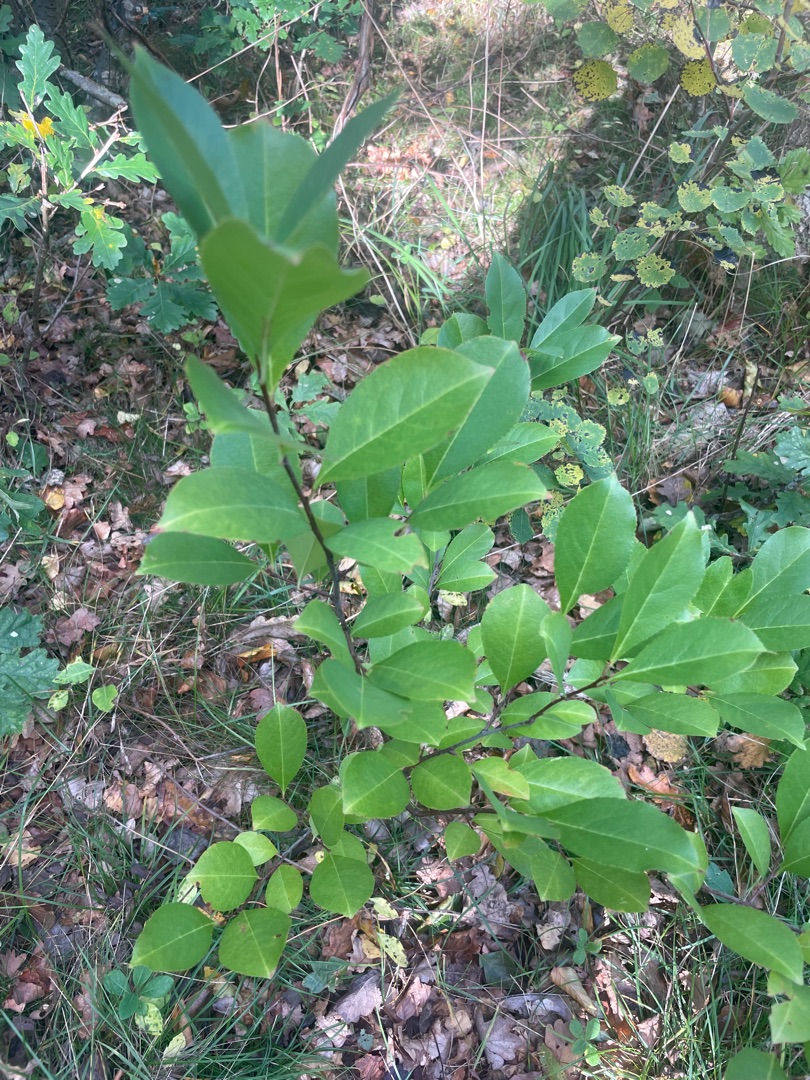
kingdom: Plantae
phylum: Tracheophyta
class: Magnoliopsida
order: Rosales
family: Rosaceae
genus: Prunus
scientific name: Prunus serotina
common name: Glansbladet hæg
